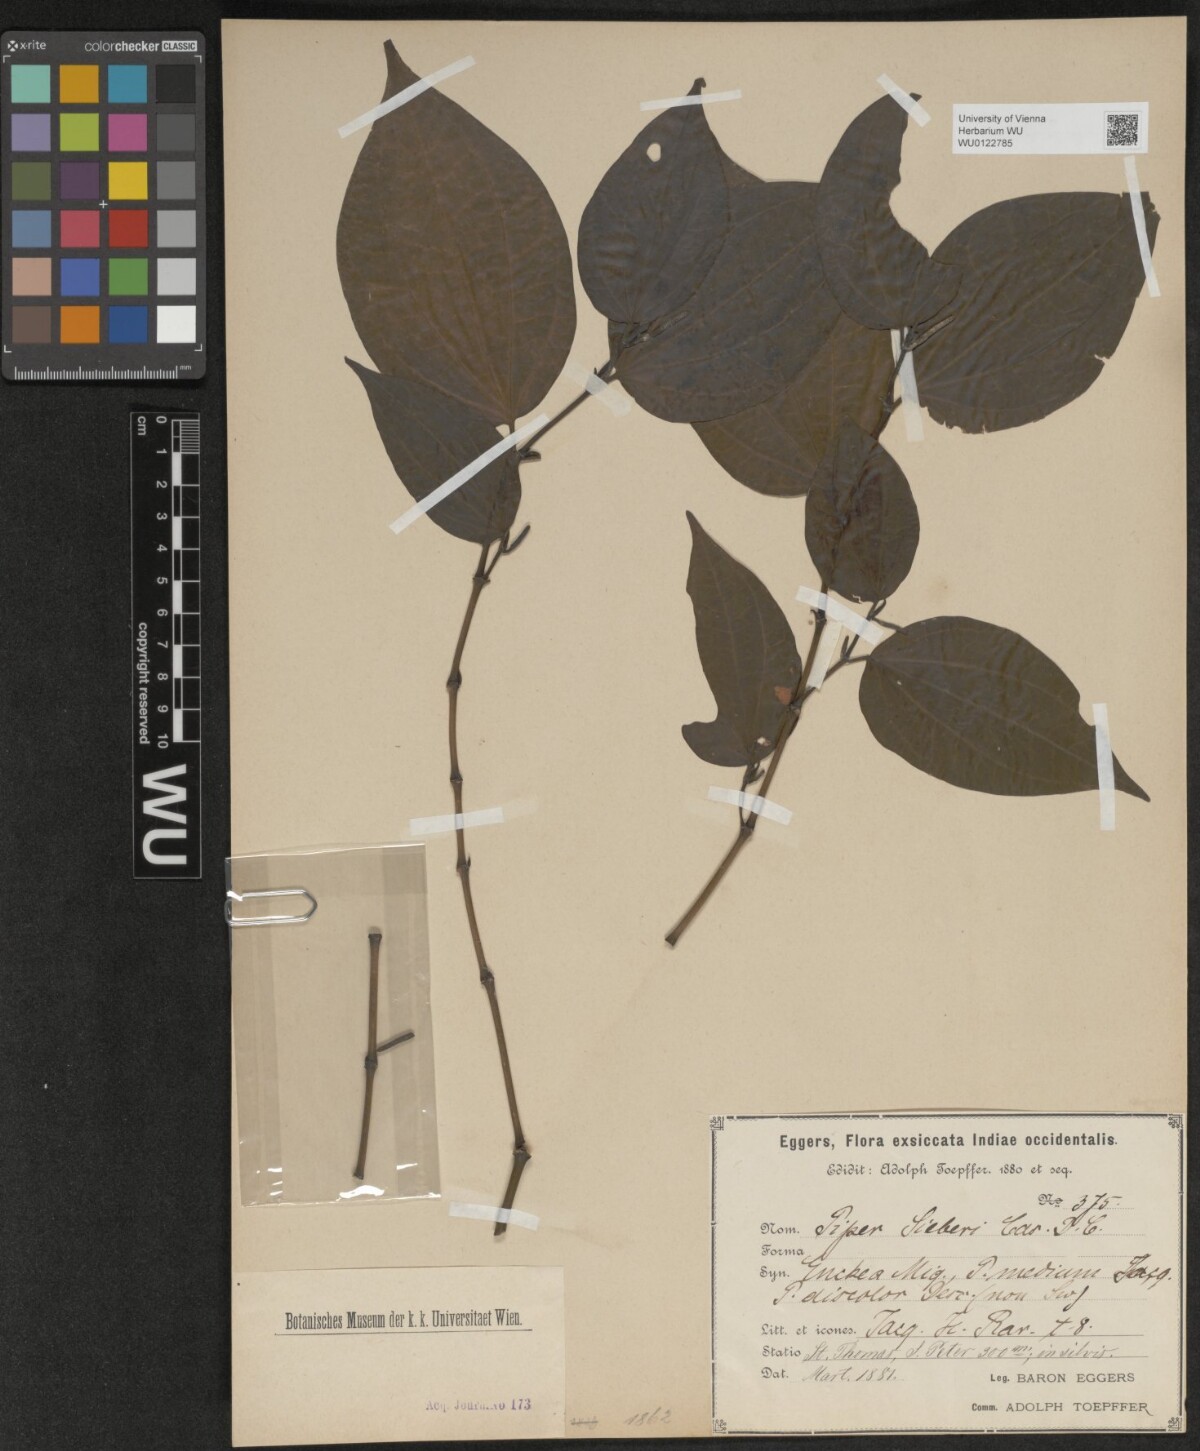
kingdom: Plantae
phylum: Tracheophyta
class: Magnoliopsida
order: Piperales
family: Piperaceae
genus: Piper
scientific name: Piper amalago
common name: Pepper-elder
